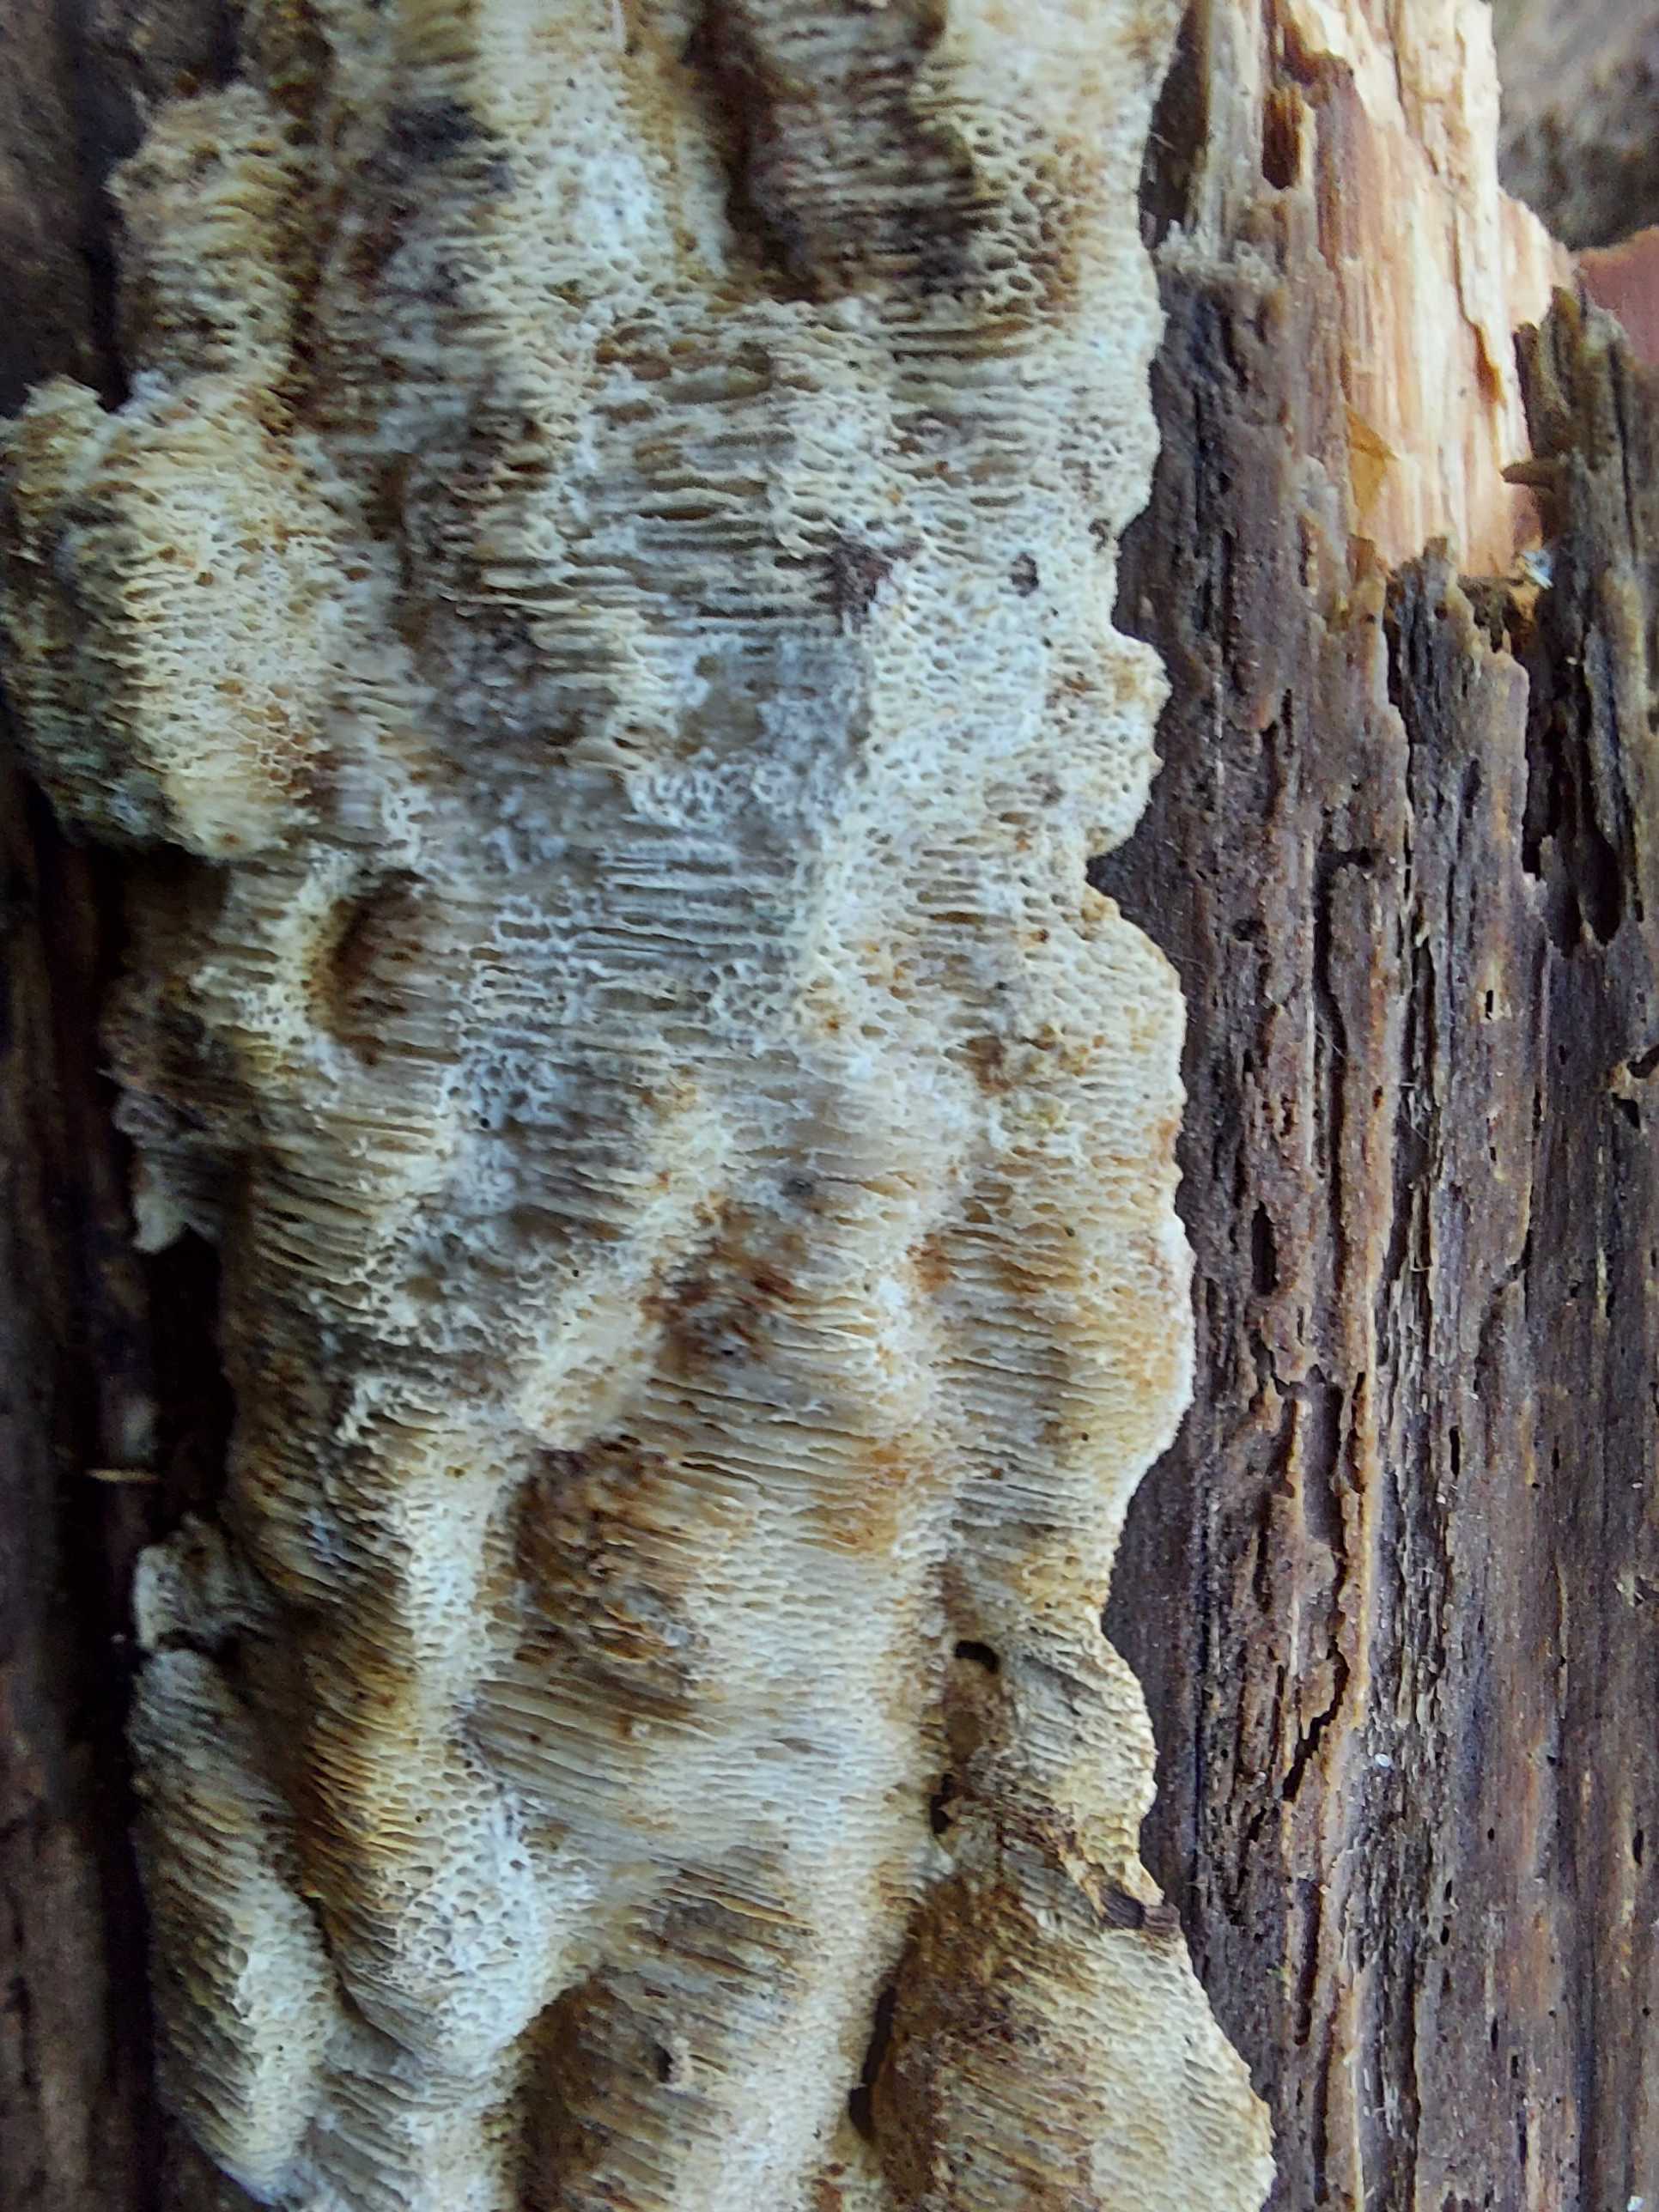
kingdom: Fungi
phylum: Basidiomycota
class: Agaricomycetes
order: Polyporales
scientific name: Polyporales
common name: poresvampordenen
